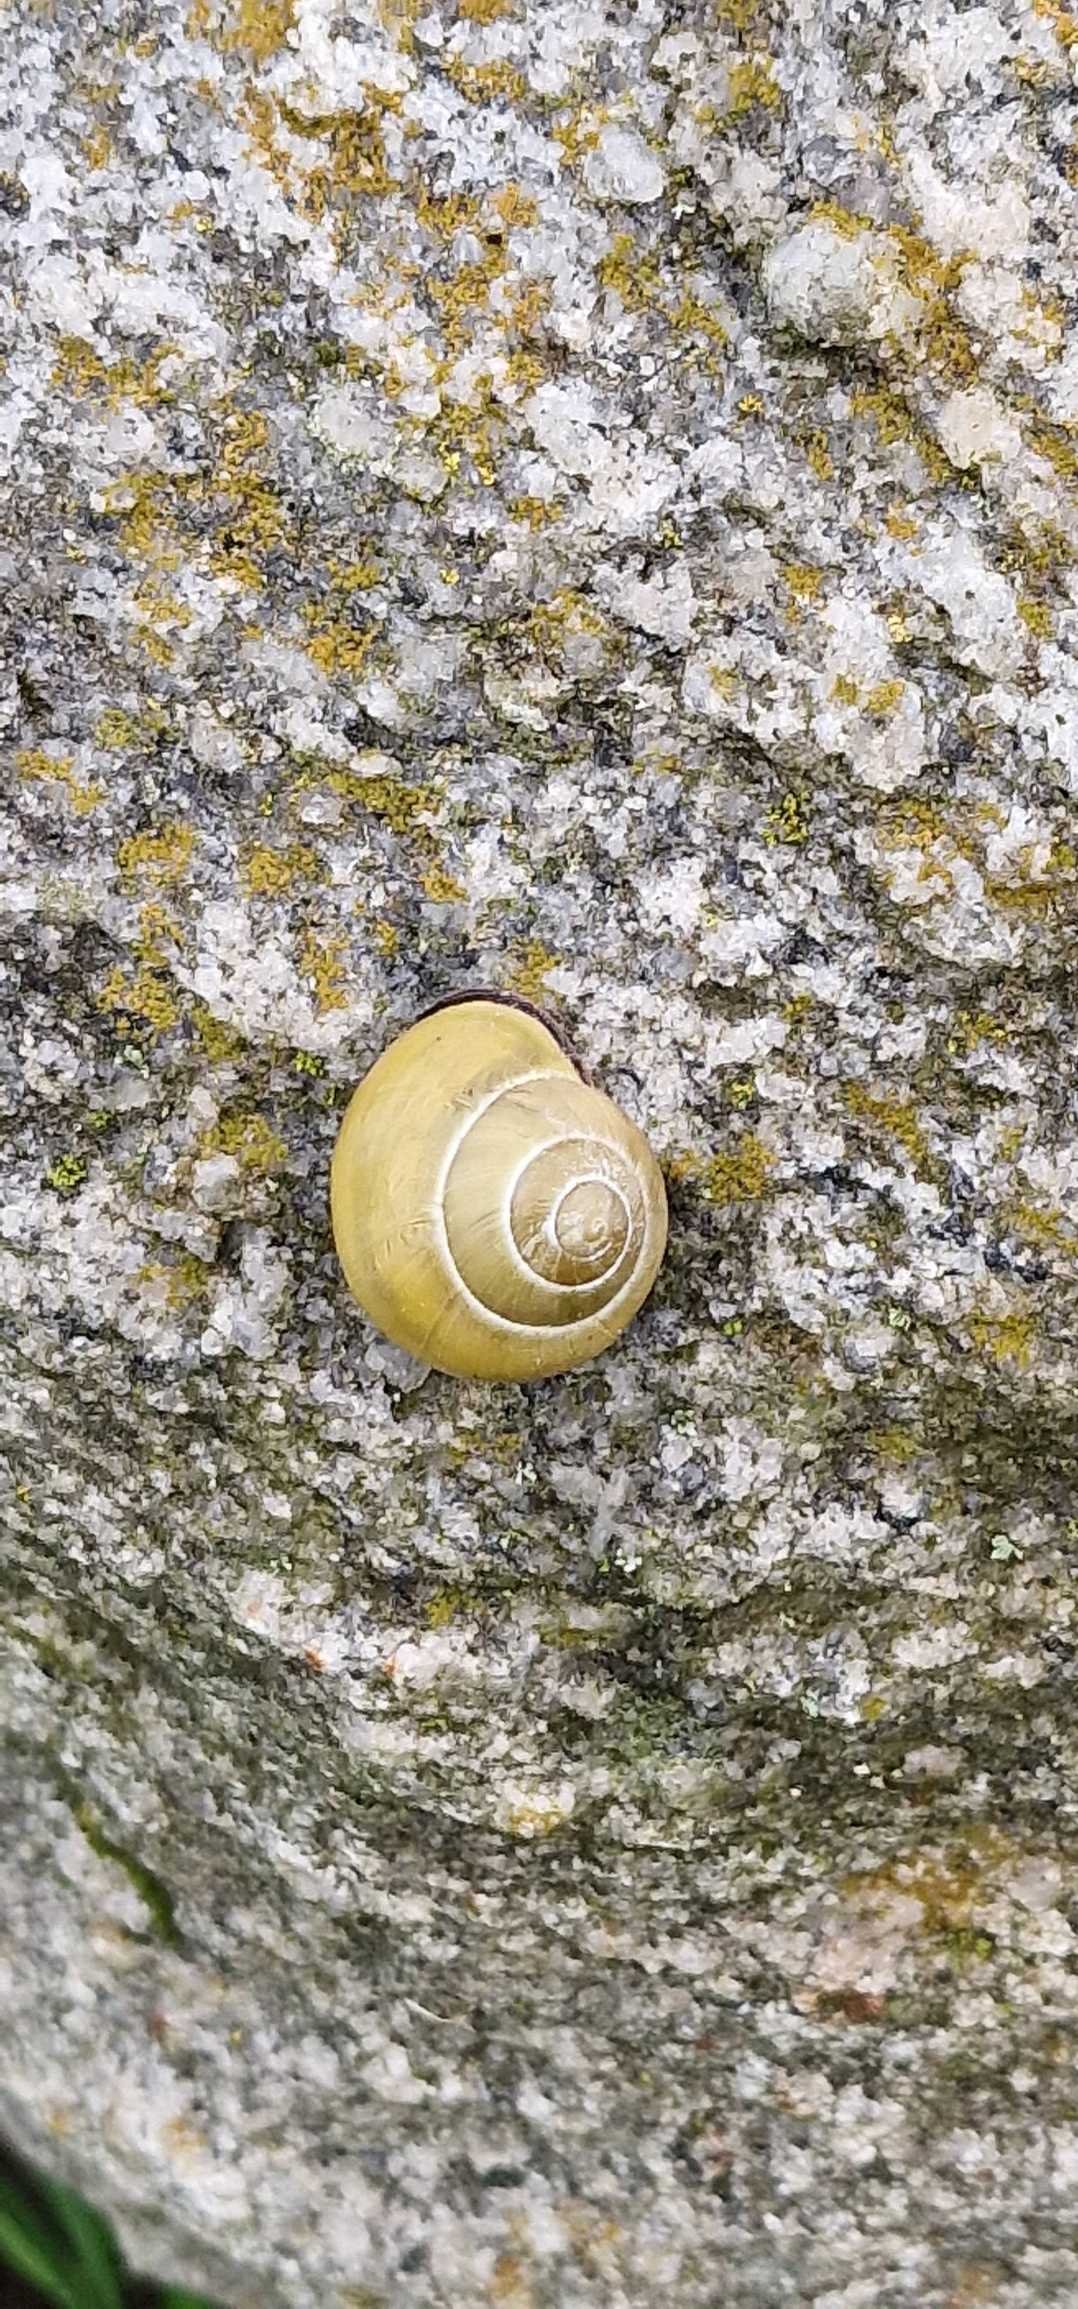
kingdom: Animalia
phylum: Mollusca
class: Gastropoda
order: Stylommatophora
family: Helicidae
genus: Cepaea
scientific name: Cepaea nemoralis
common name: Lundsnegl
